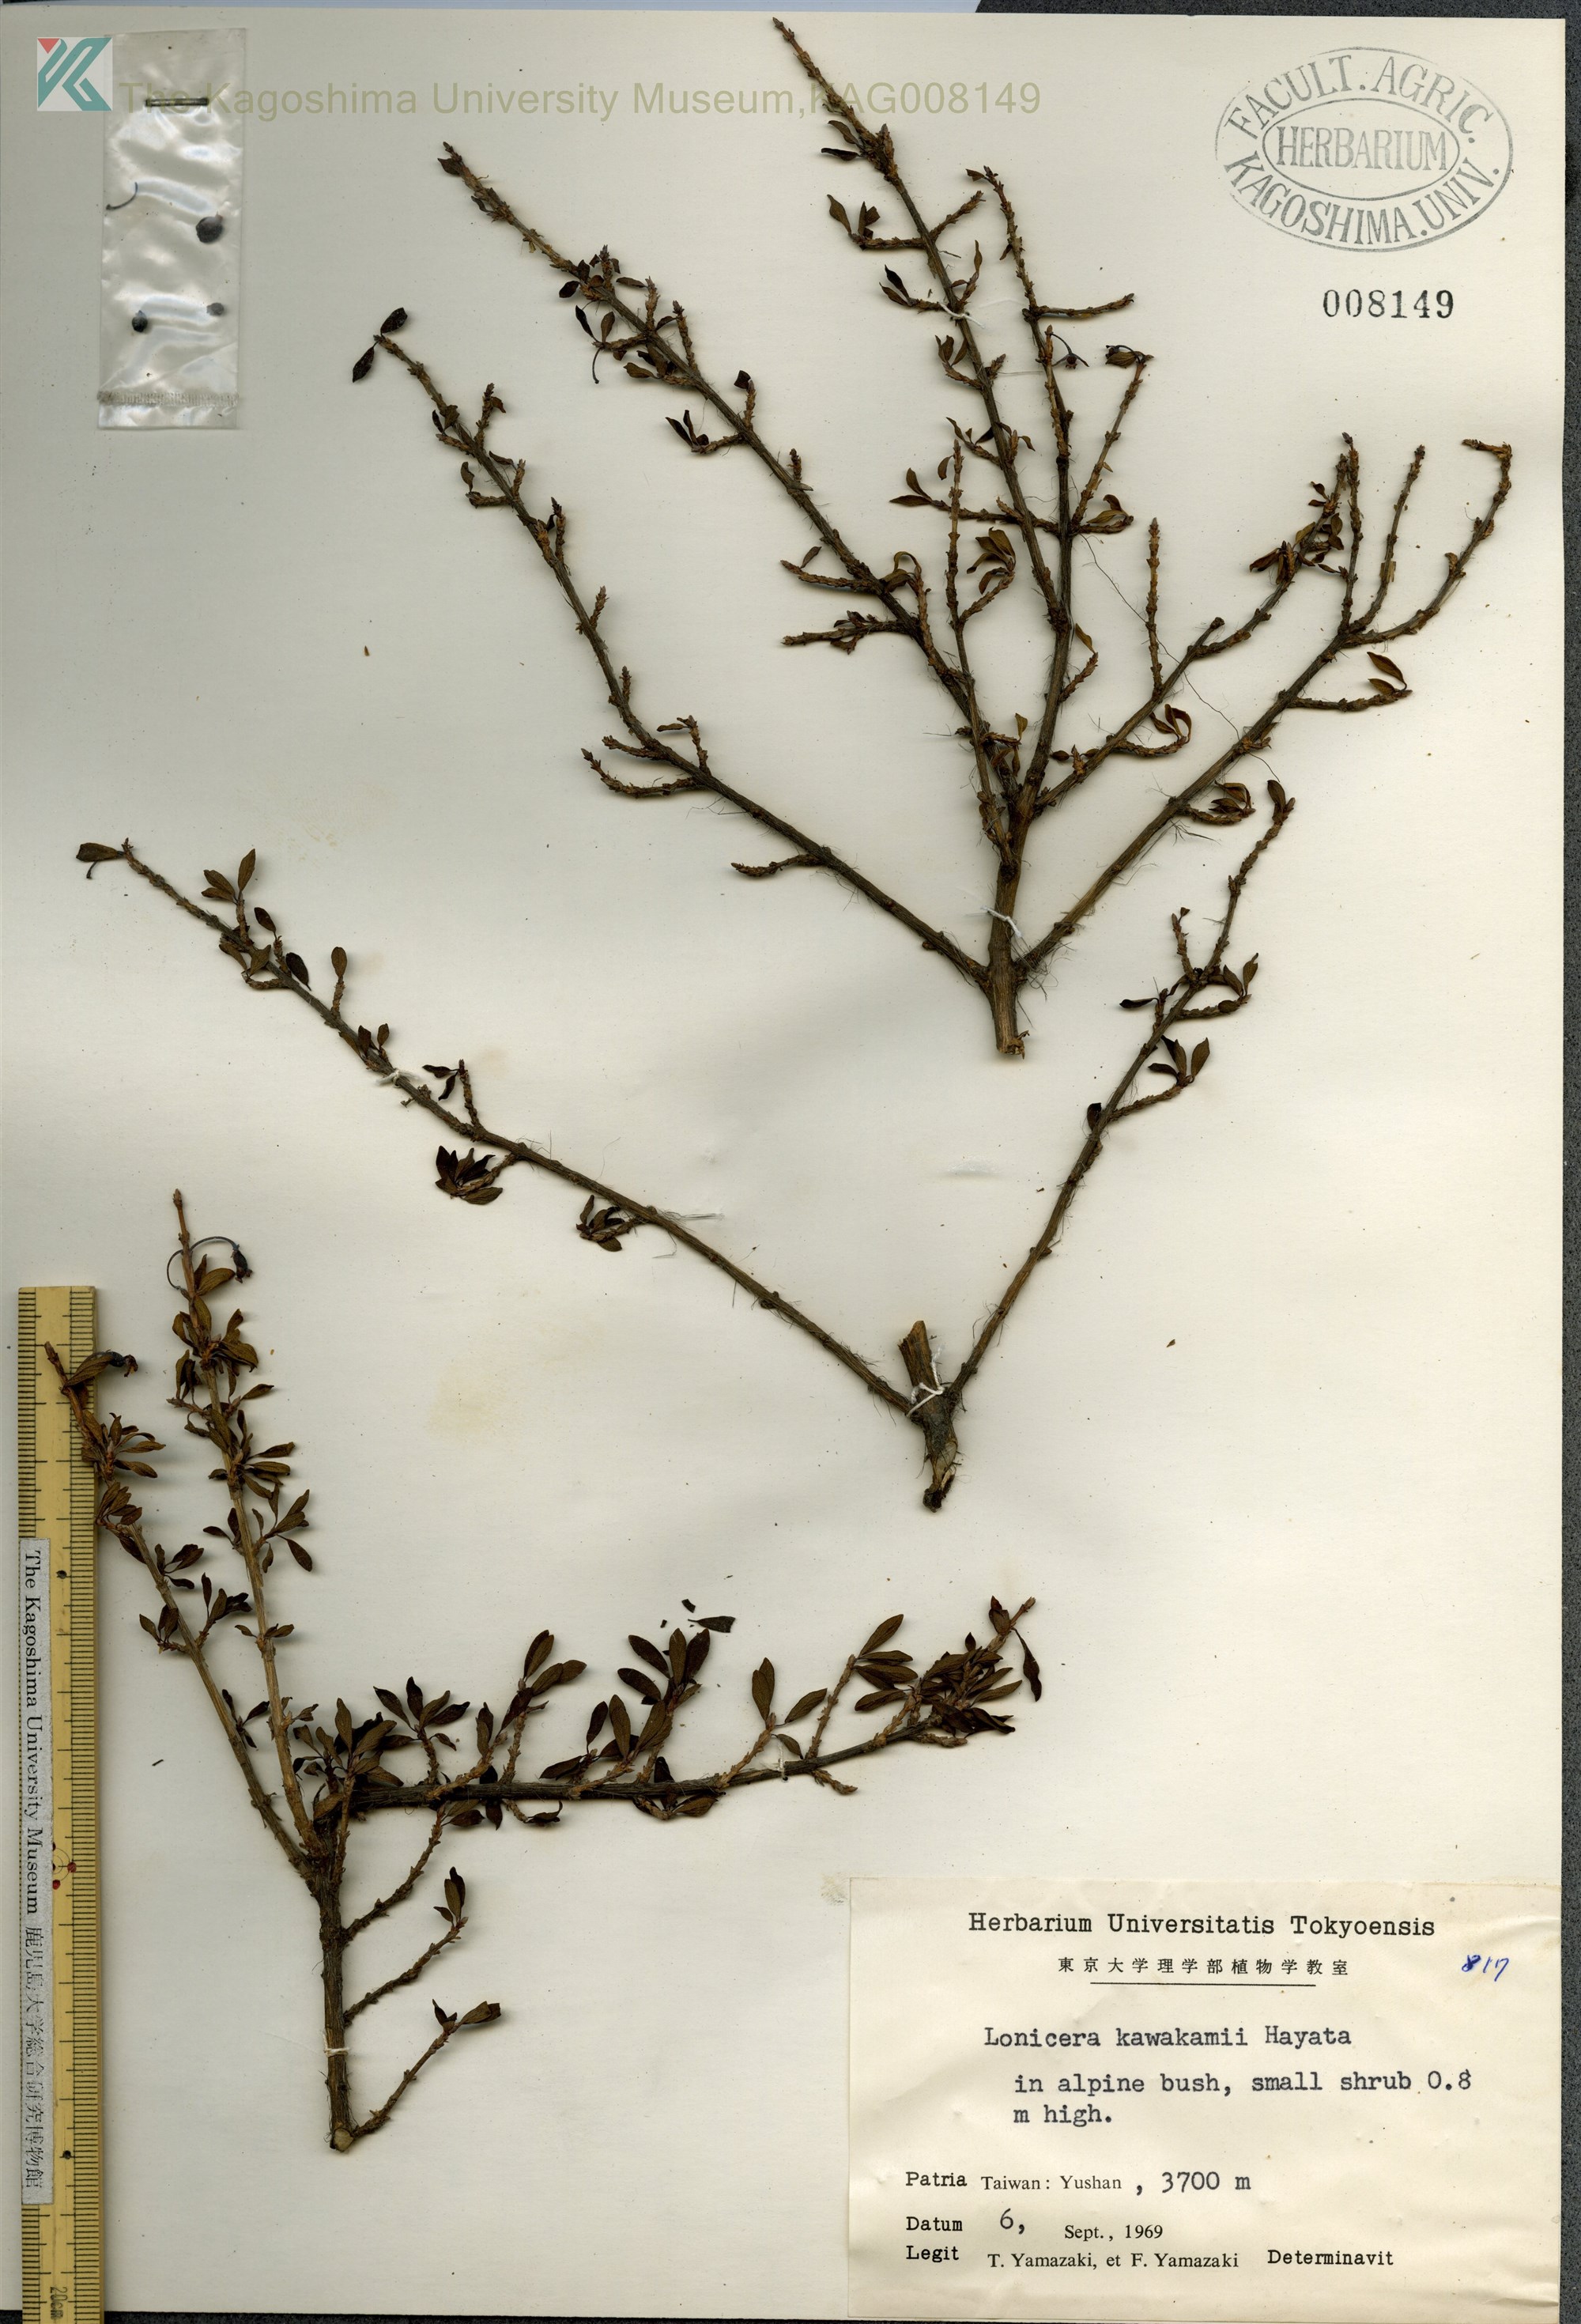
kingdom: Plantae
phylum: Tracheophyta
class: Magnoliopsida
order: Dipsacales
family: Caprifoliaceae
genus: Lonicera
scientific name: Lonicera kawakamii
